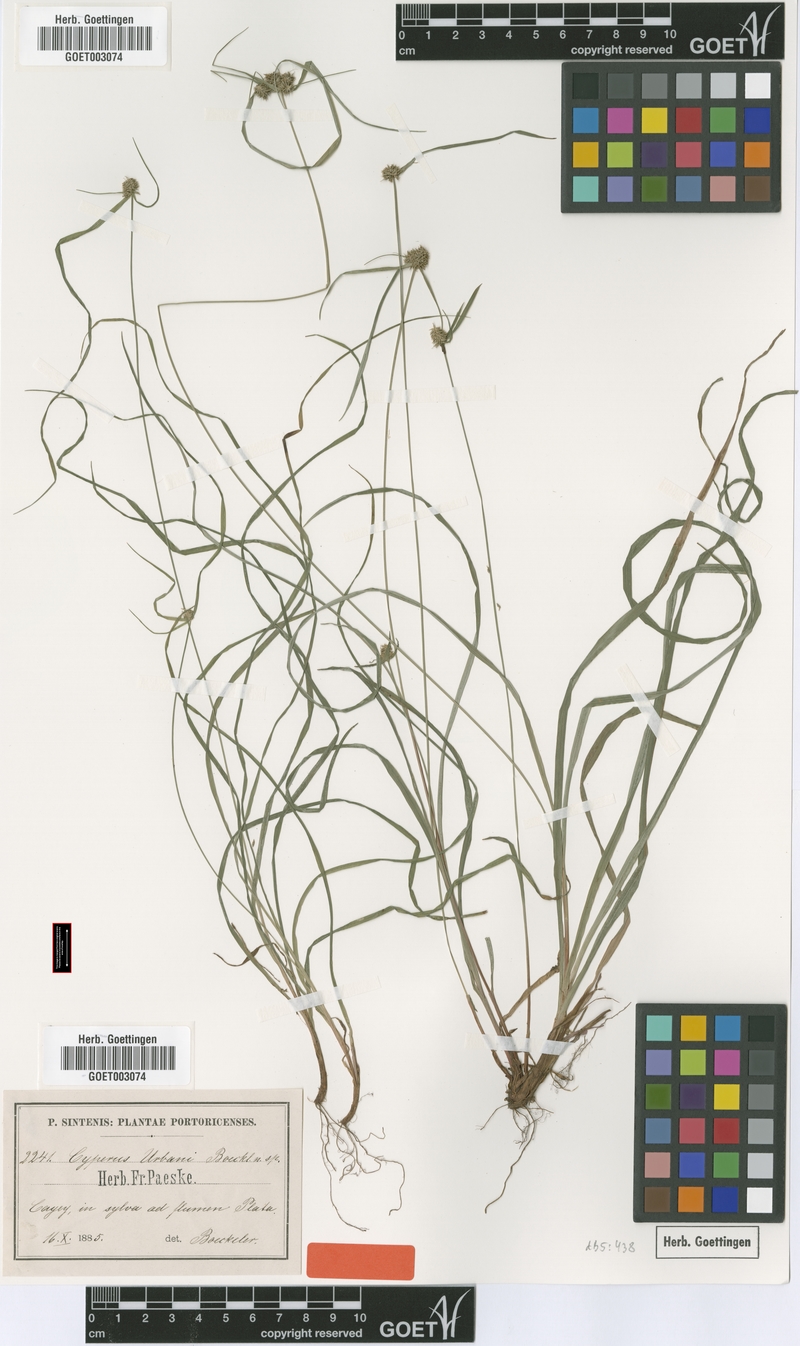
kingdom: Plantae
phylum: Tracheophyta
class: Liliopsida
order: Poales
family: Cyperaceae
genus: Cyperus
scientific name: Cyperus urbani
